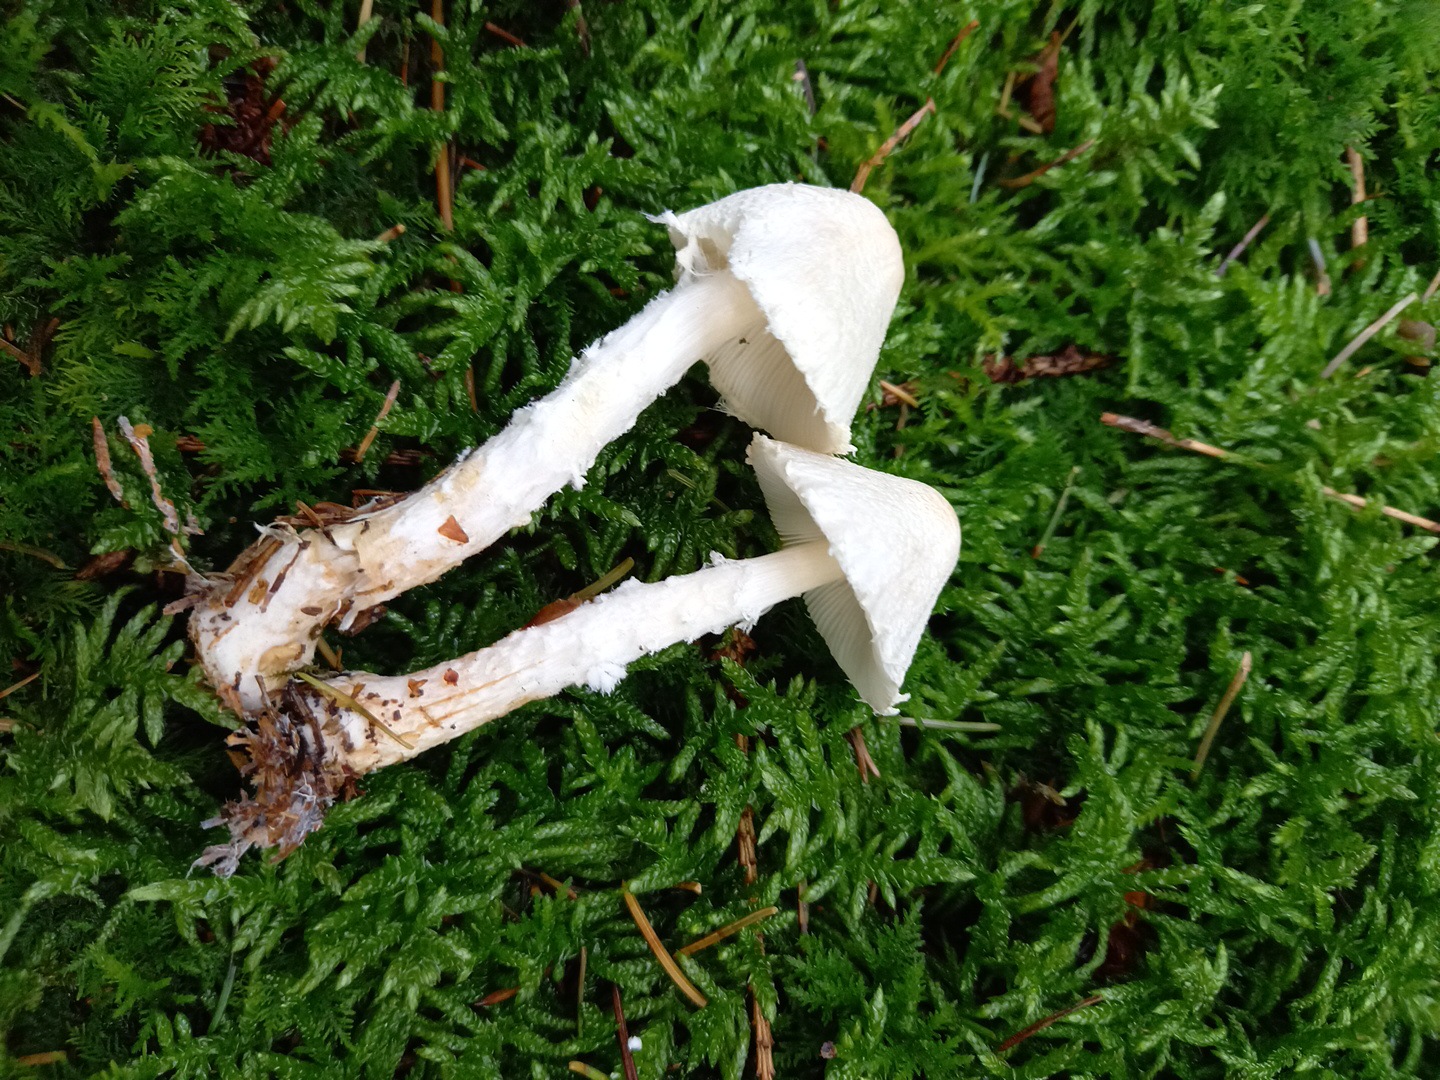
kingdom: Fungi
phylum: Basidiomycota
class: Agaricomycetes
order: Agaricales
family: Agaricaceae
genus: Lepiota
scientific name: Lepiota clypeolaria
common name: flosset parasolhat
